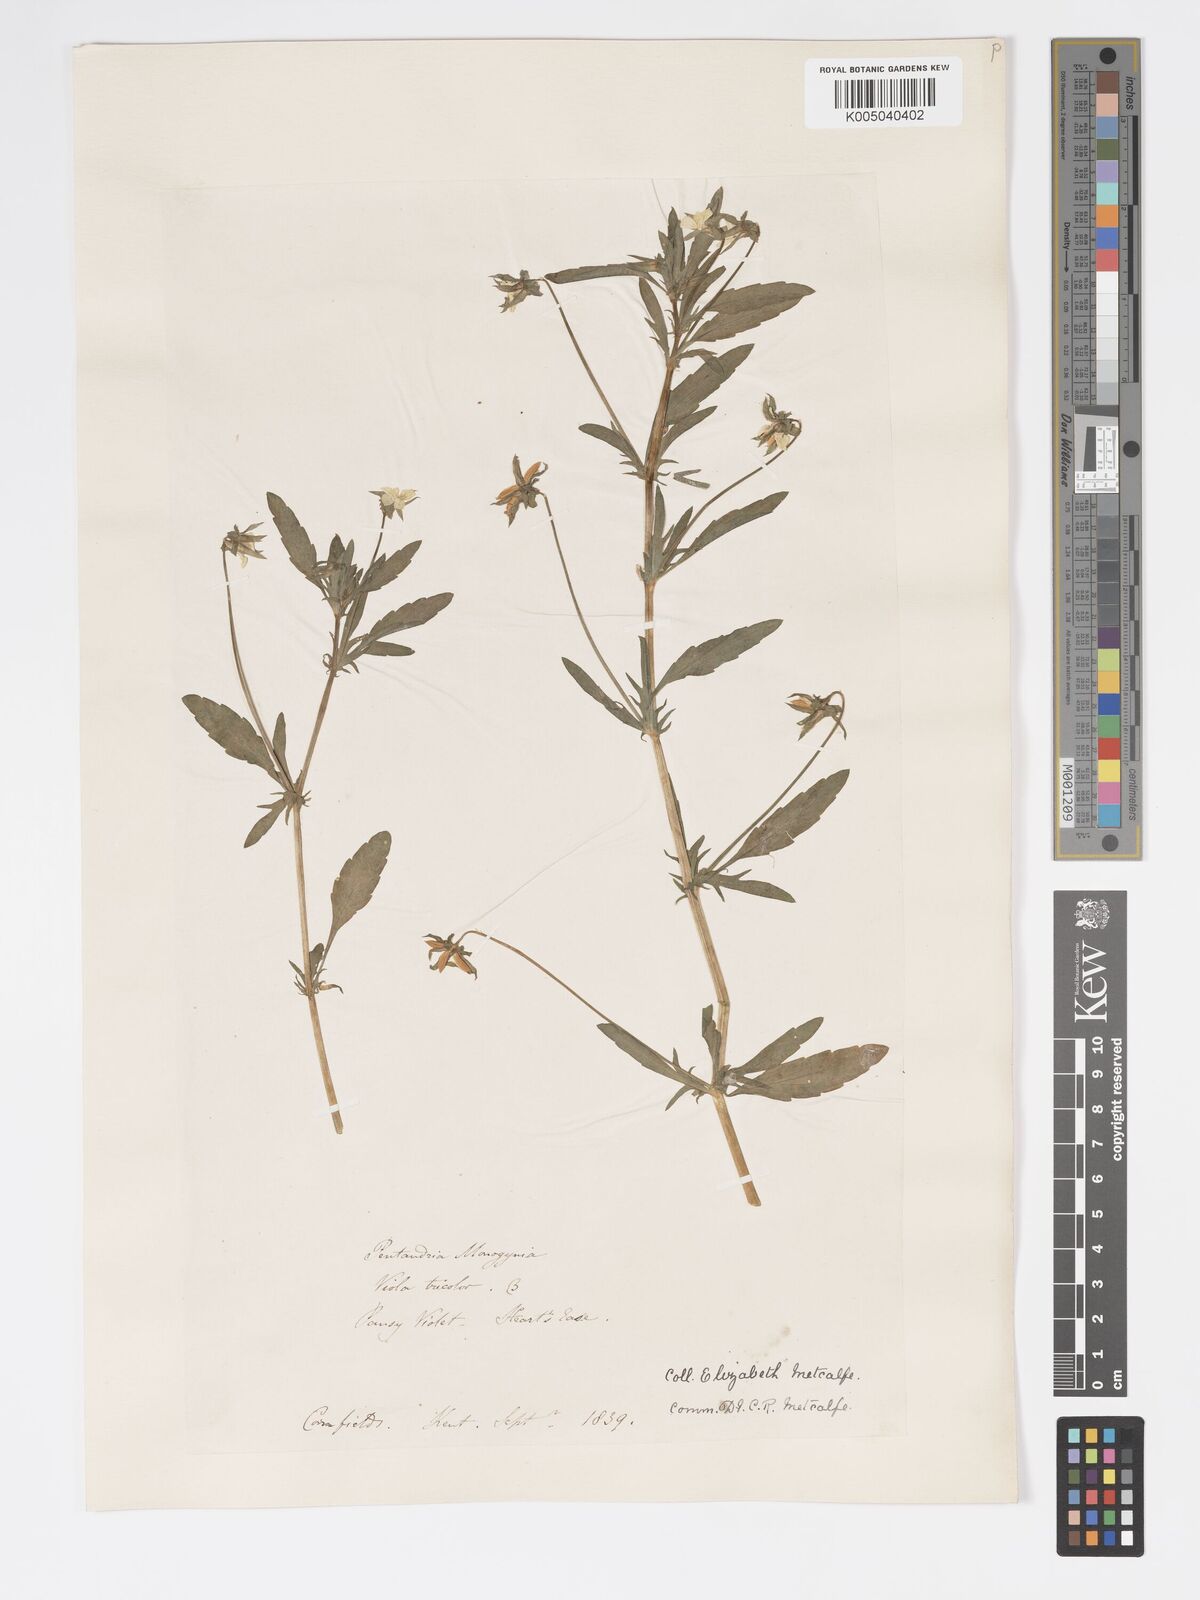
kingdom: Plantae
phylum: Tracheophyta
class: Magnoliopsida
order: Malpighiales
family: Violaceae
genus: Viola
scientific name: Viola arvensis
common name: Field pansy
